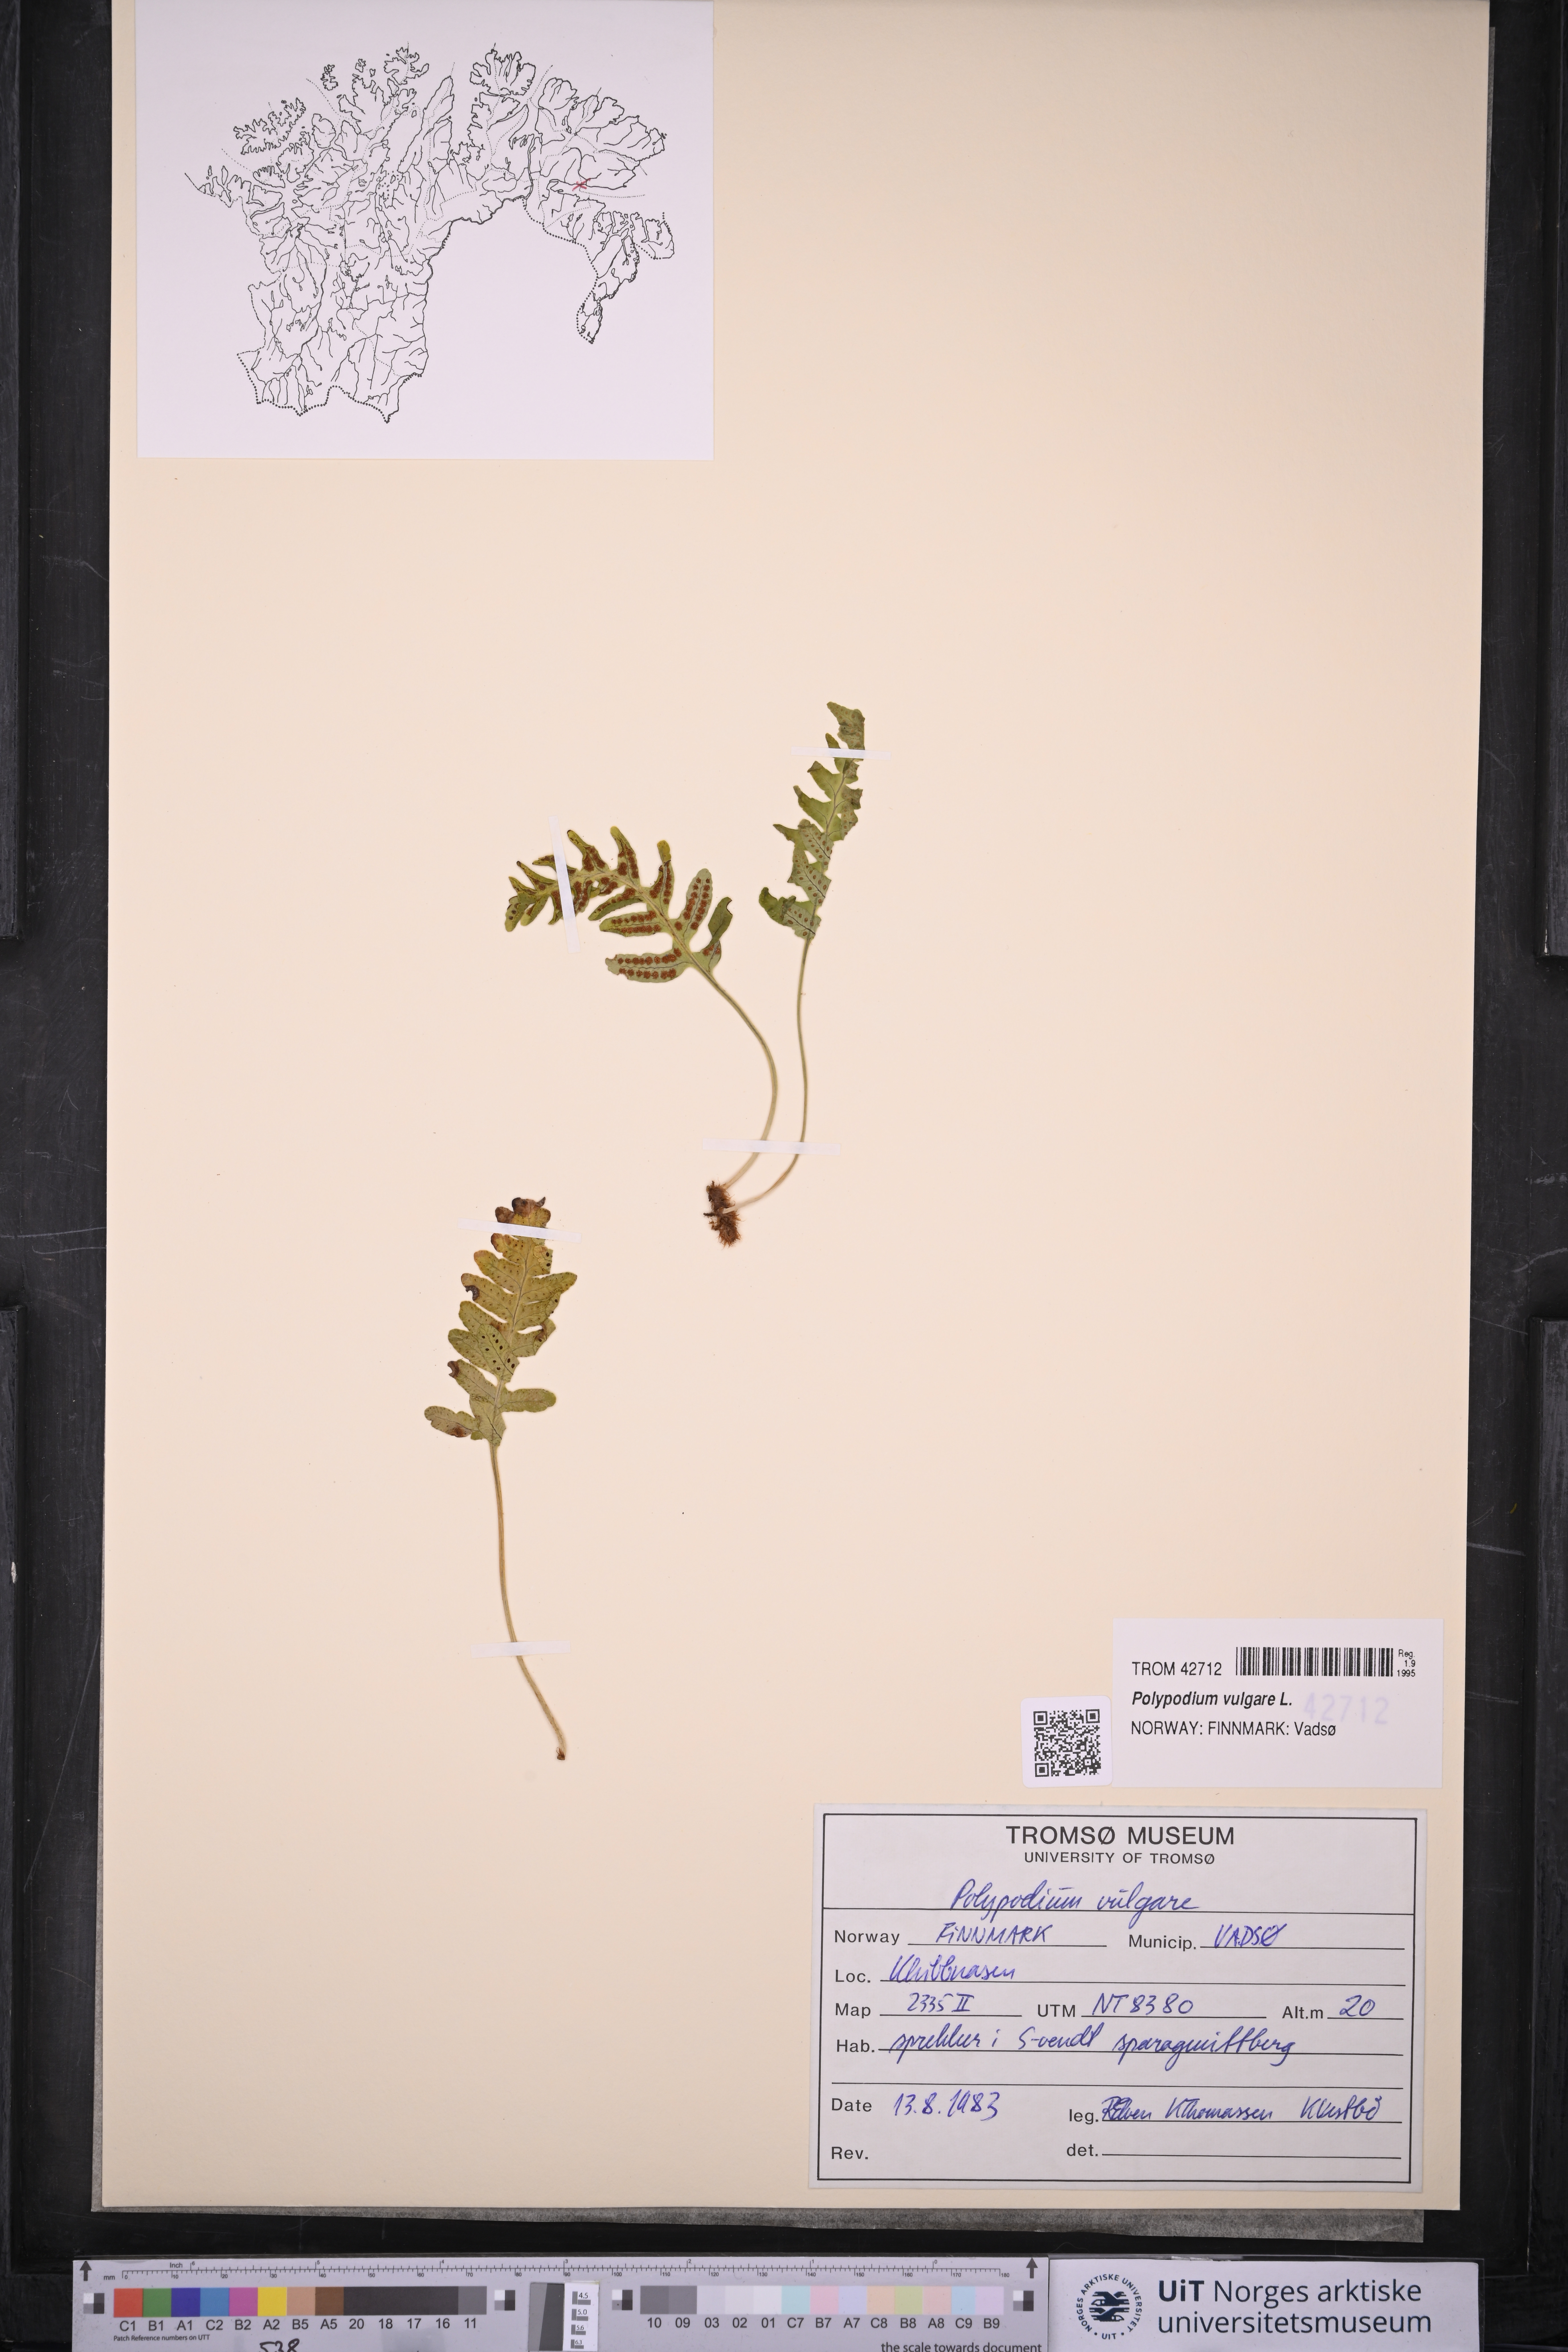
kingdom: Plantae
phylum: Tracheophyta
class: Polypodiopsida
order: Polypodiales
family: Polypodiaceae
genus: Polypodium
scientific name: Polypodium vulgare
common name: Common polypody
